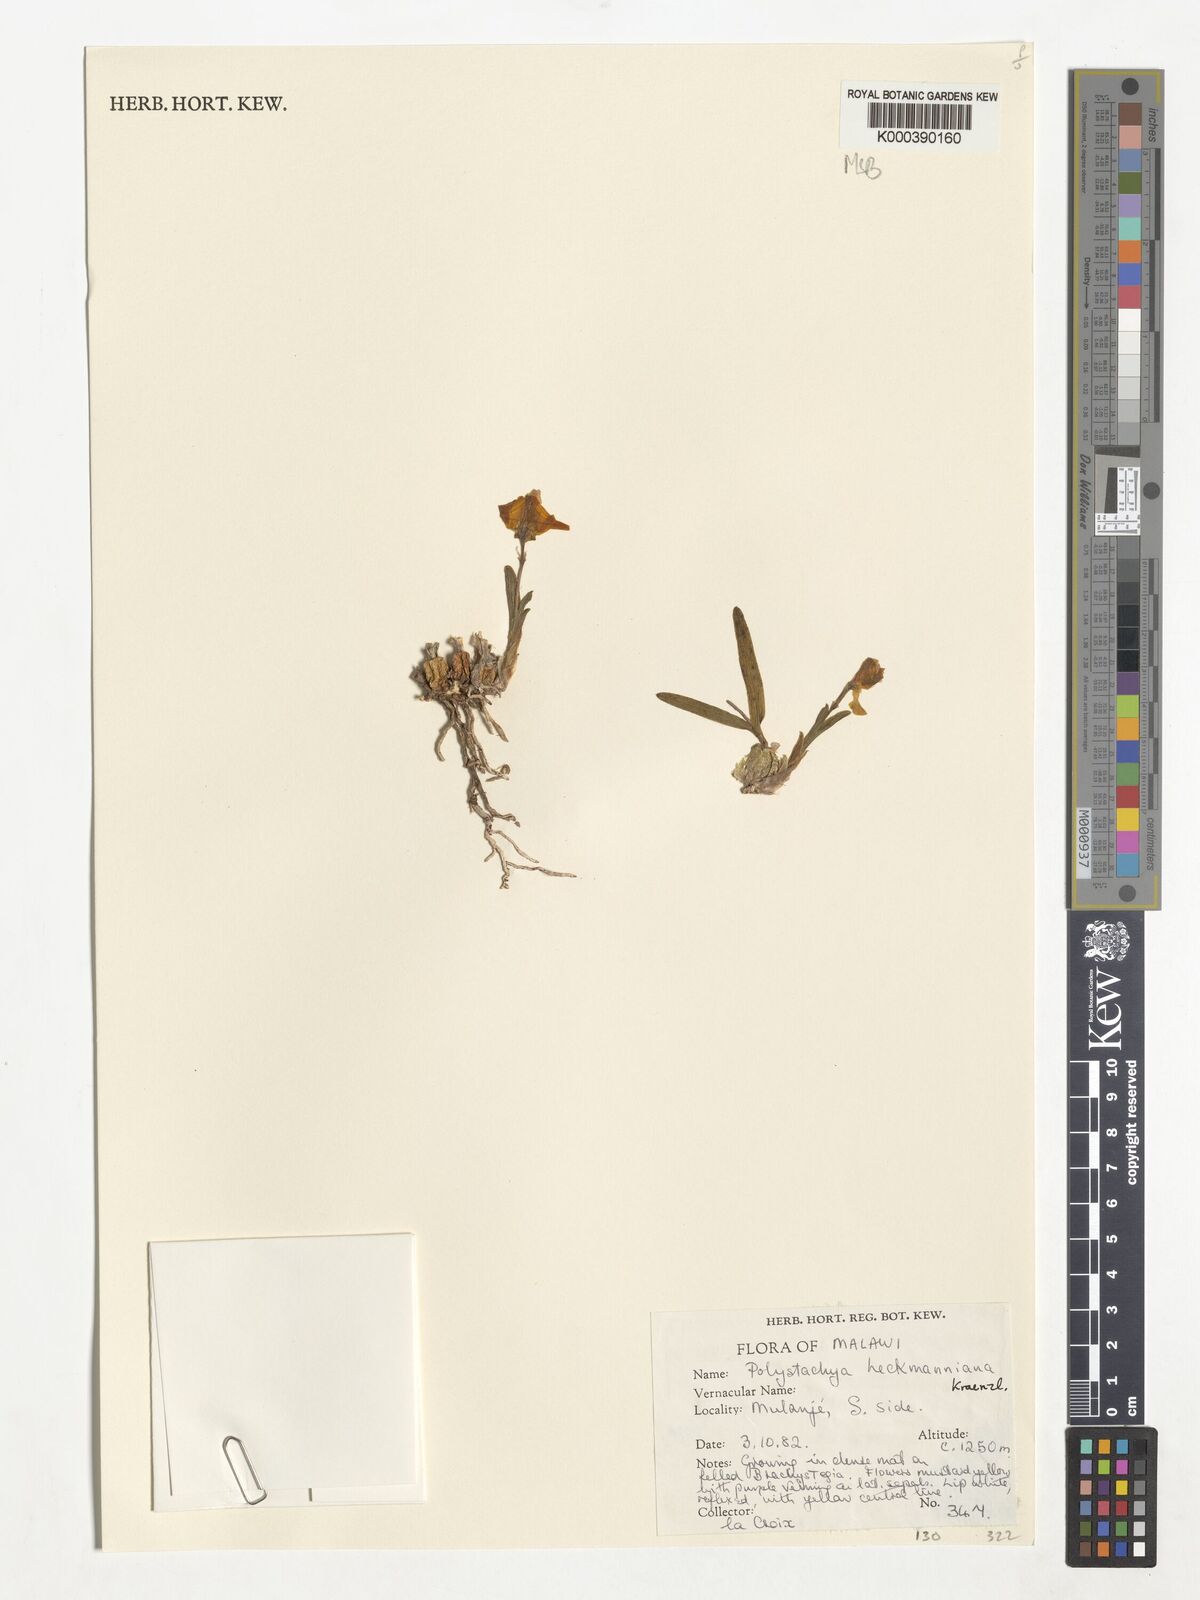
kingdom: Plantae
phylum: Tracheophyta
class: Liliopsida
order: Asparagales
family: Orchidaceae
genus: Polystachya
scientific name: Polystachya heckmanniana
